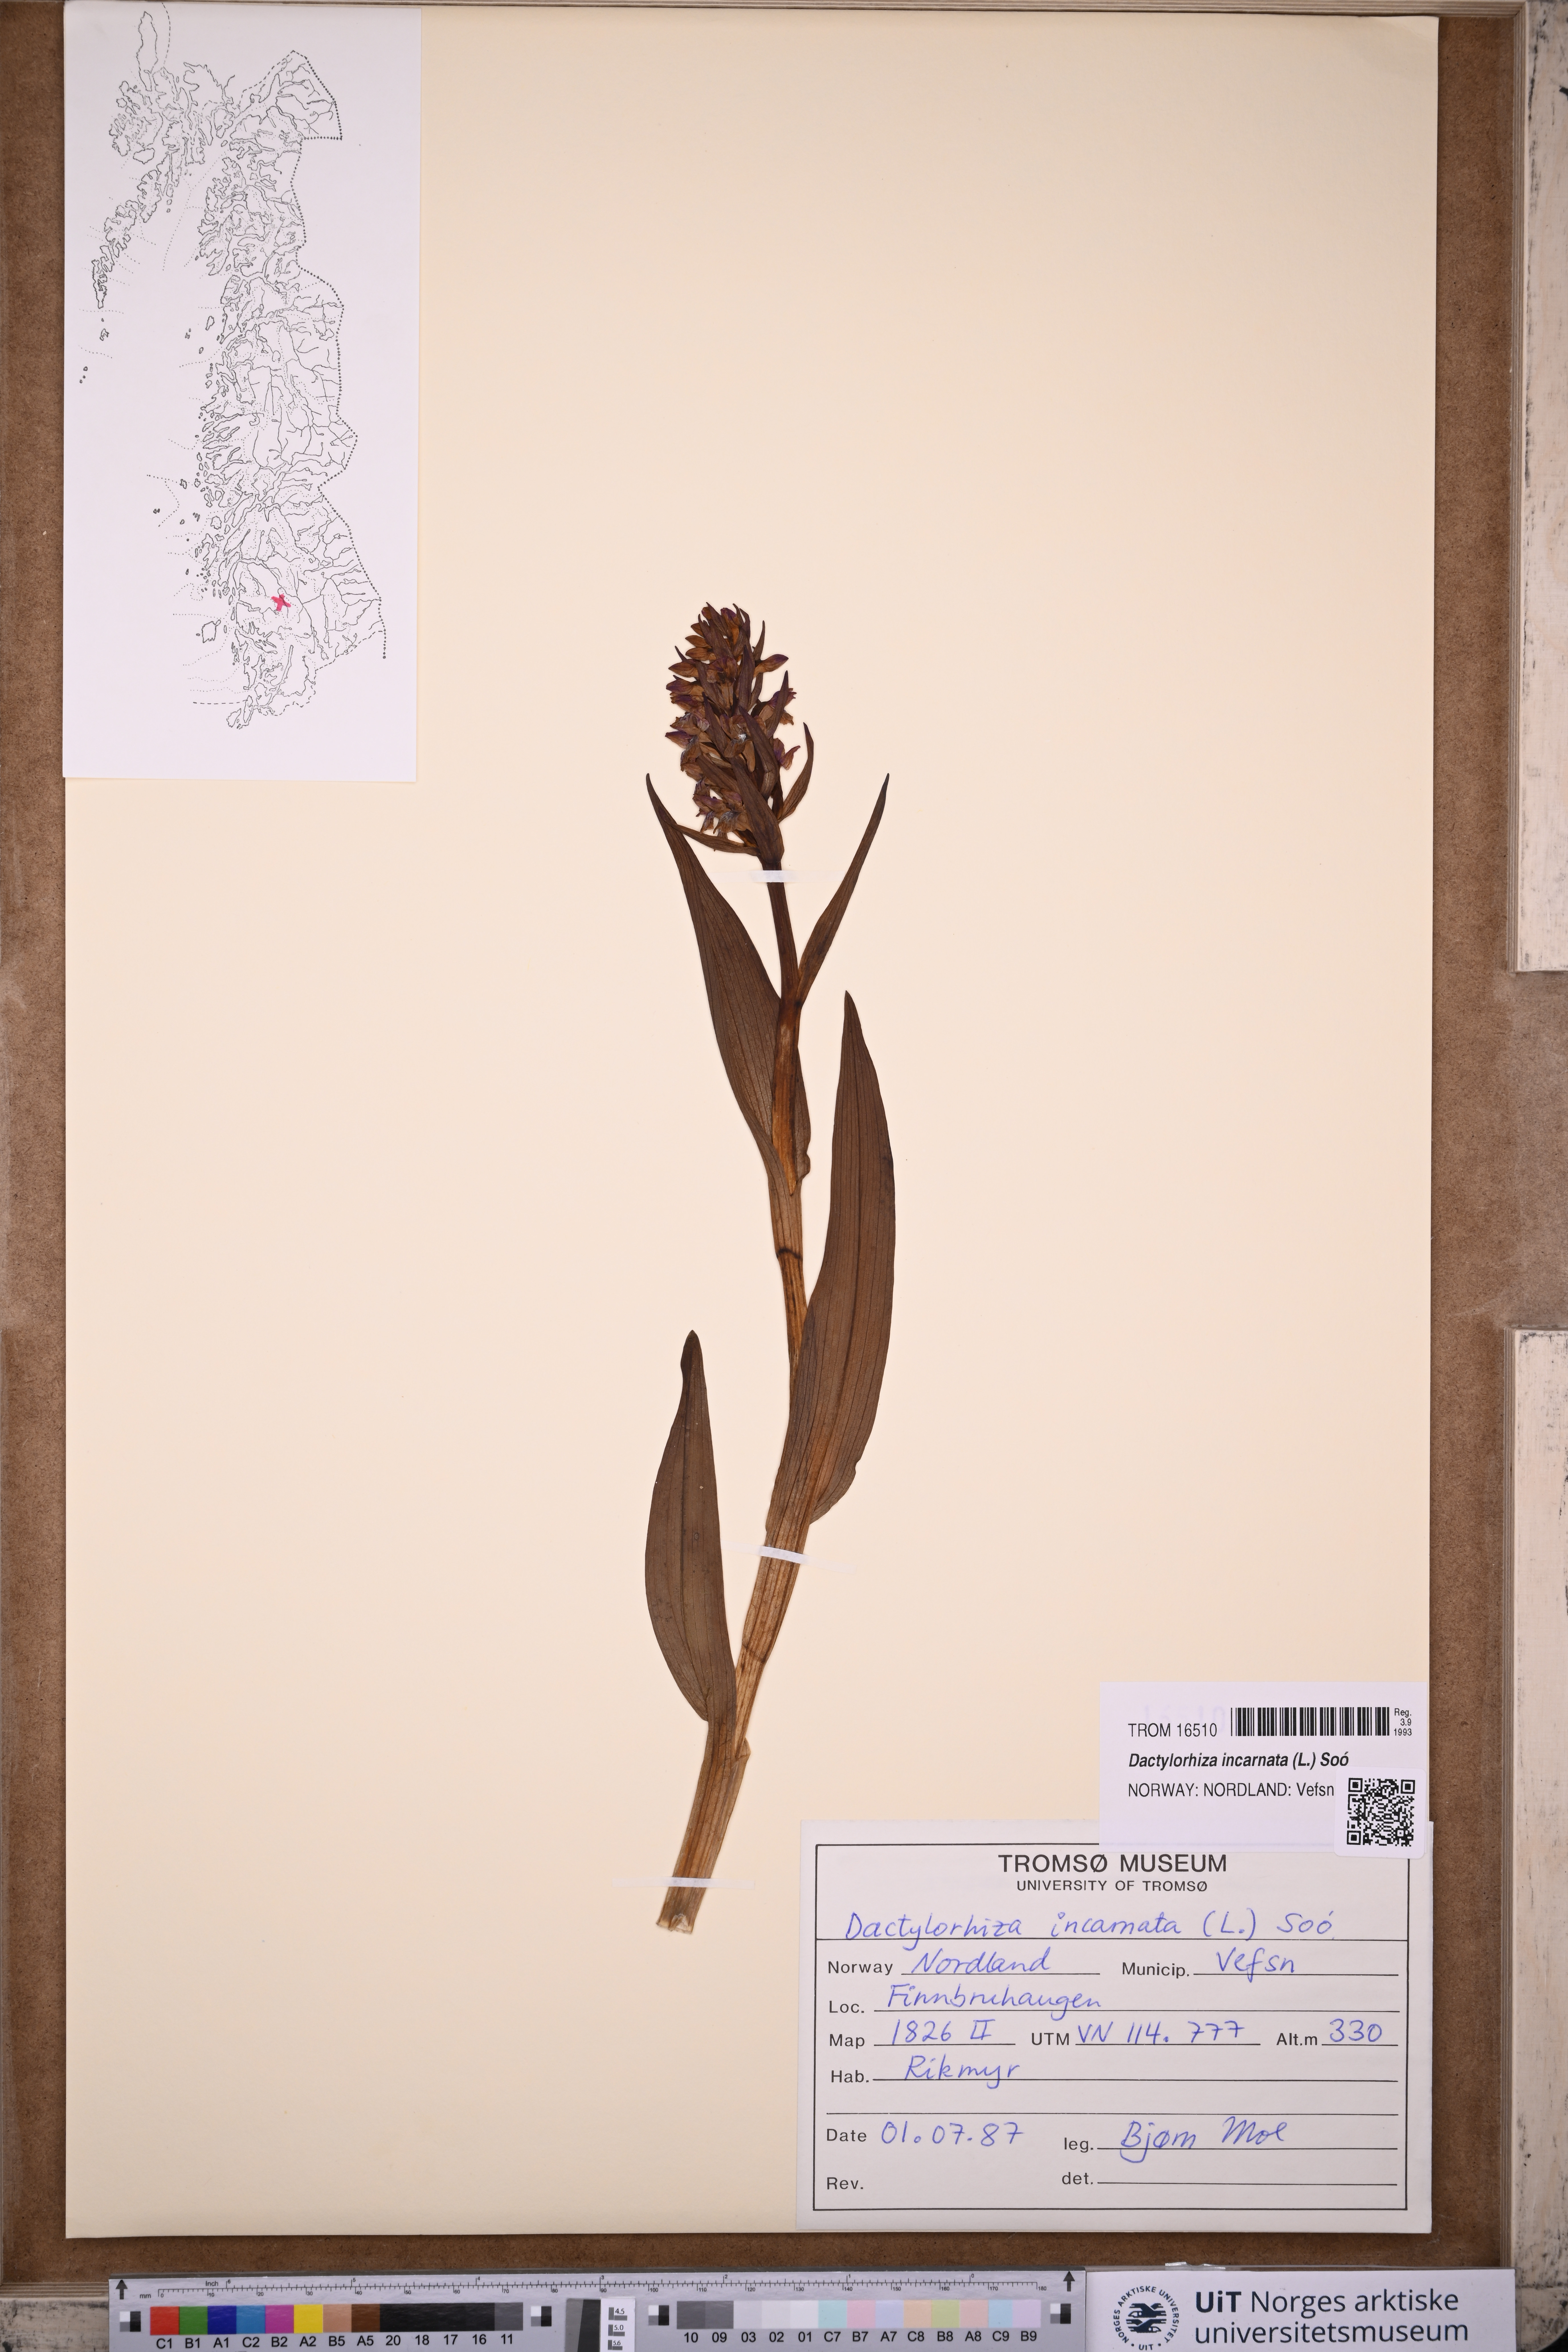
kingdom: Plantae
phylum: Tracheophyta
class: Liliopsida
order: Asparagales
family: Orchidaceae
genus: Dactylorhiza
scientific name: Dactylorhiza incarnata
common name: Early marsh-orchid
